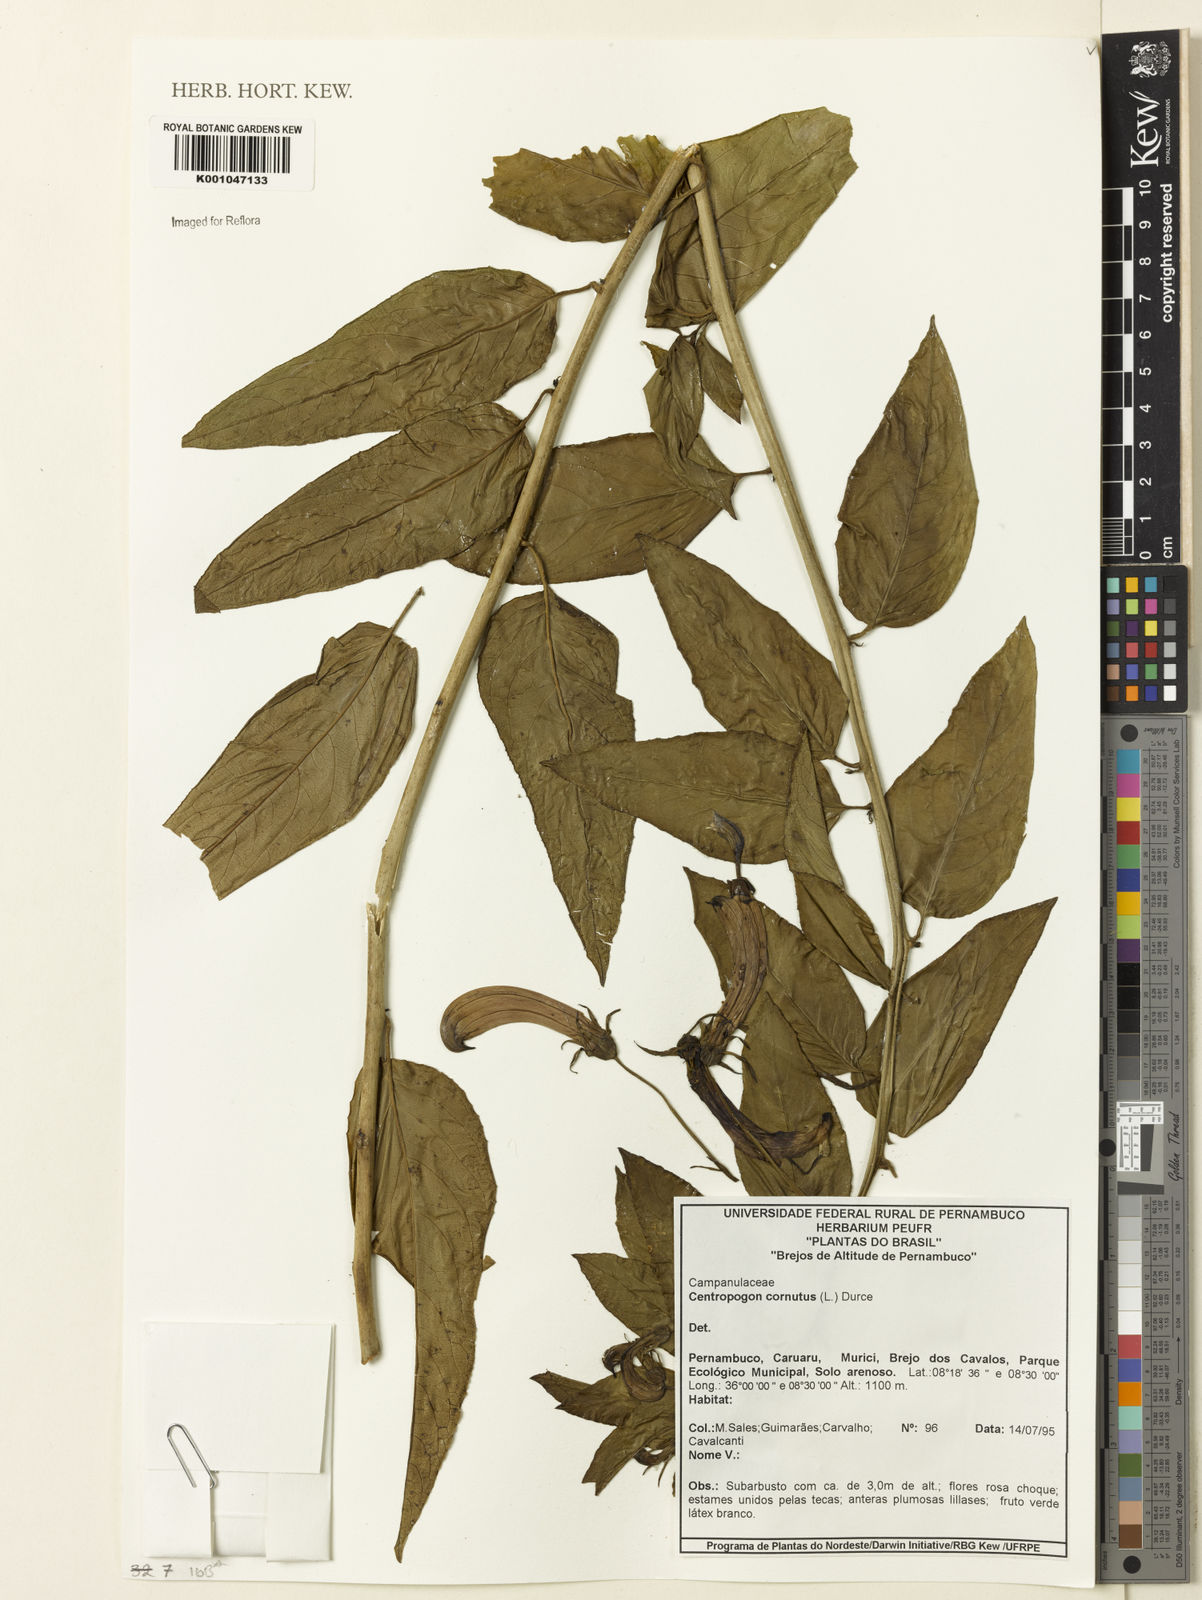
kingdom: Plantae
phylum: Tracheophyta
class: Magnoliopsida
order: Asterales
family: Campanulaceae
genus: Centropogon
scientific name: Centropogon cornutus
